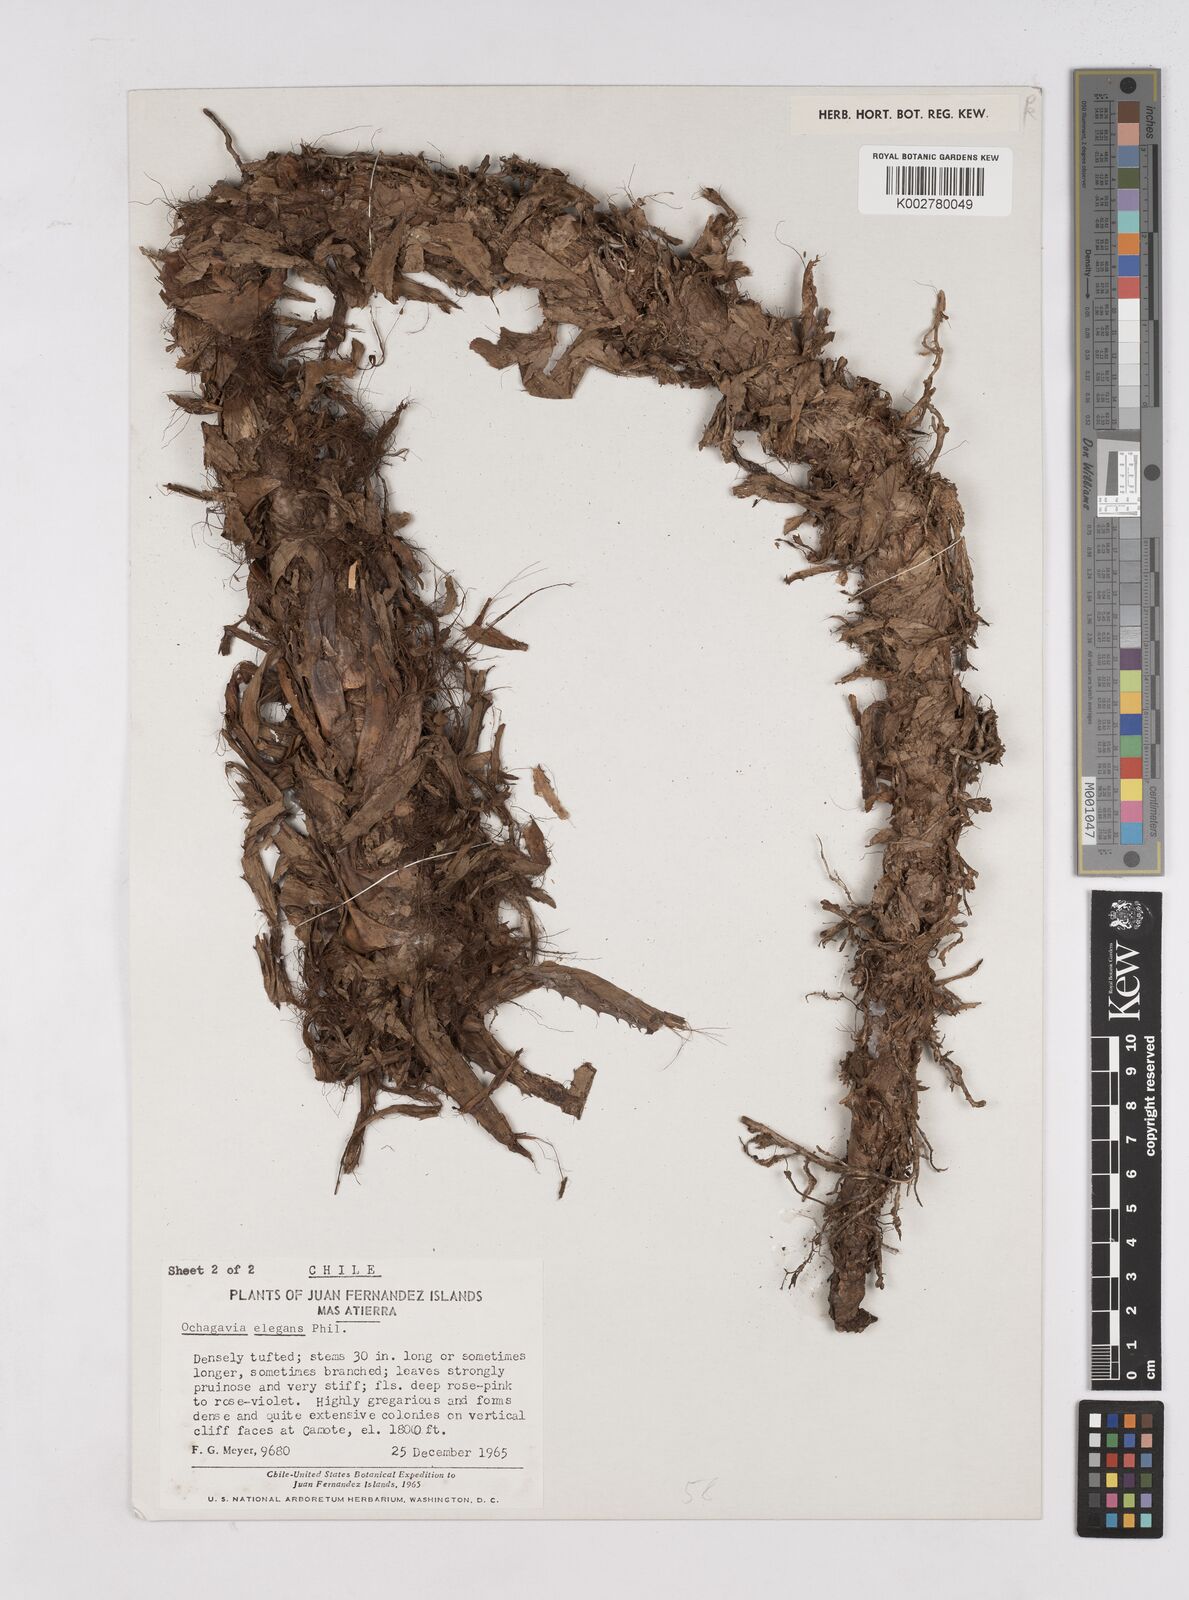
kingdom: Plantae
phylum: Tracheophyta
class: Liliopsida
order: Poales
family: Bromeliaceae
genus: Ochagavia
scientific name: Ochagavia elegans
